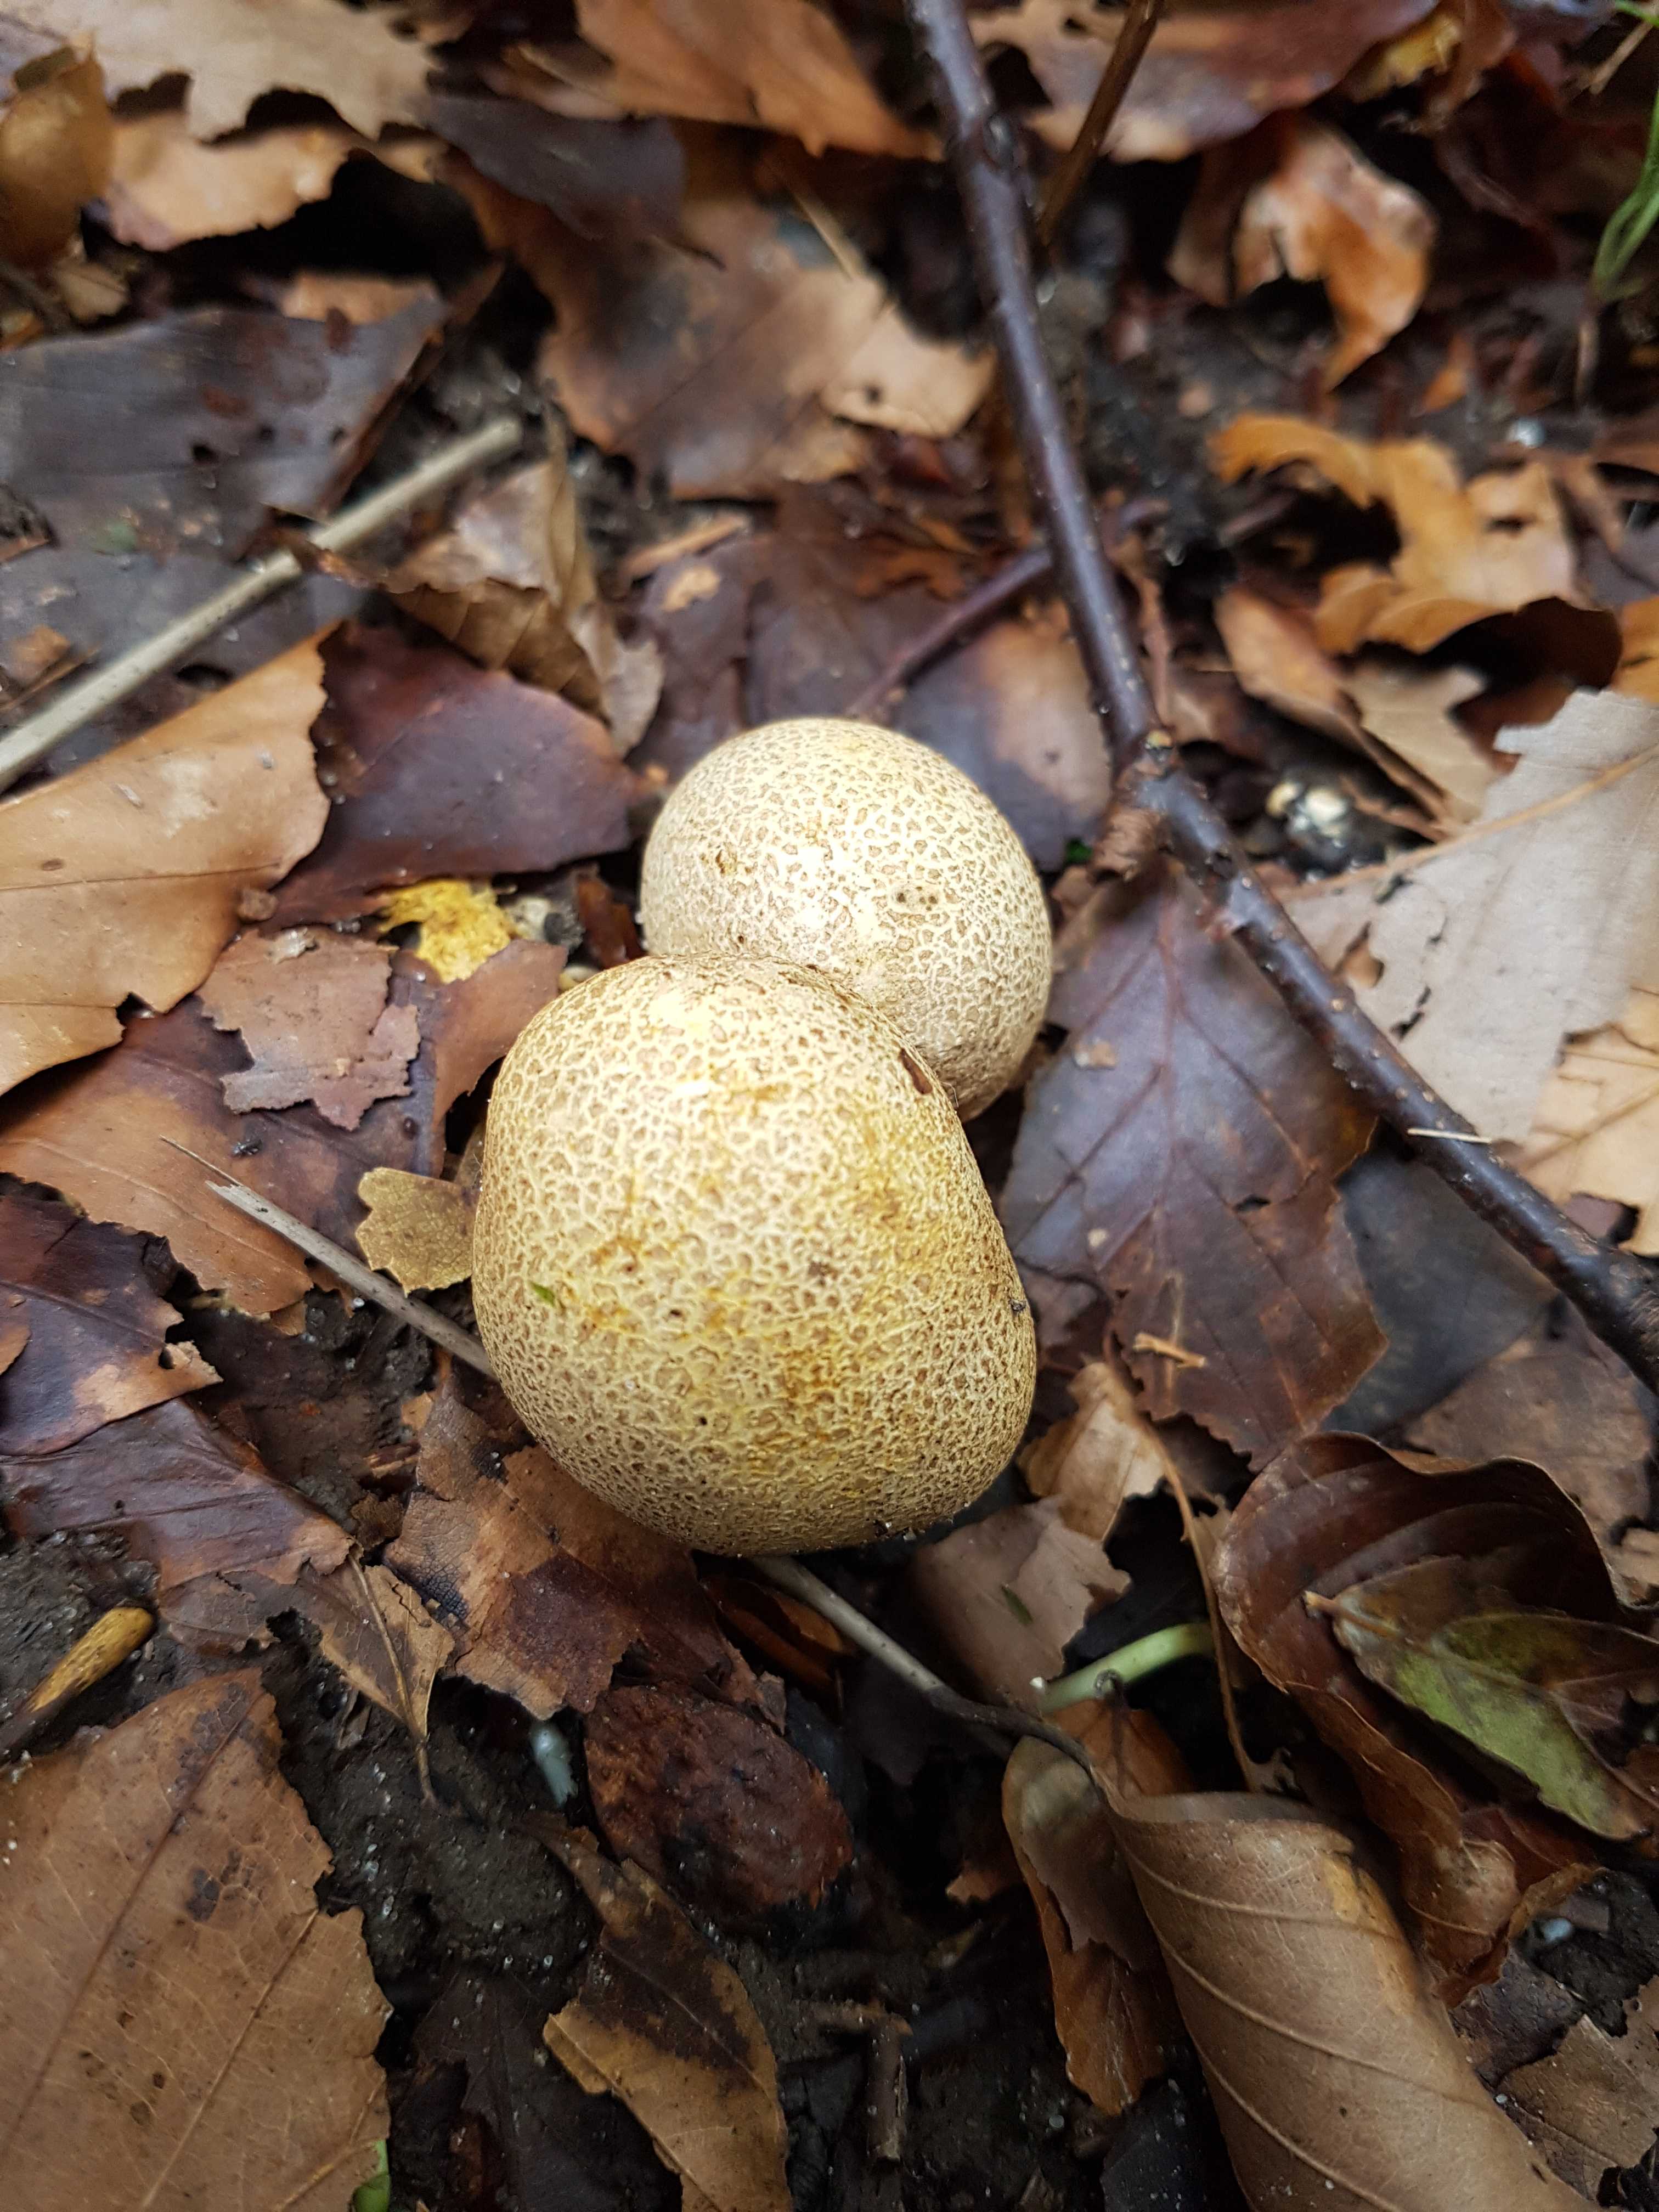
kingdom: Fungi
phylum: Basidiomycota
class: Agaricomycetes
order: Boletales
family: Sclerodermataceae
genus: Scleroderma
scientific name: Scleroderma citrinum
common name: almindelig bruskbold
